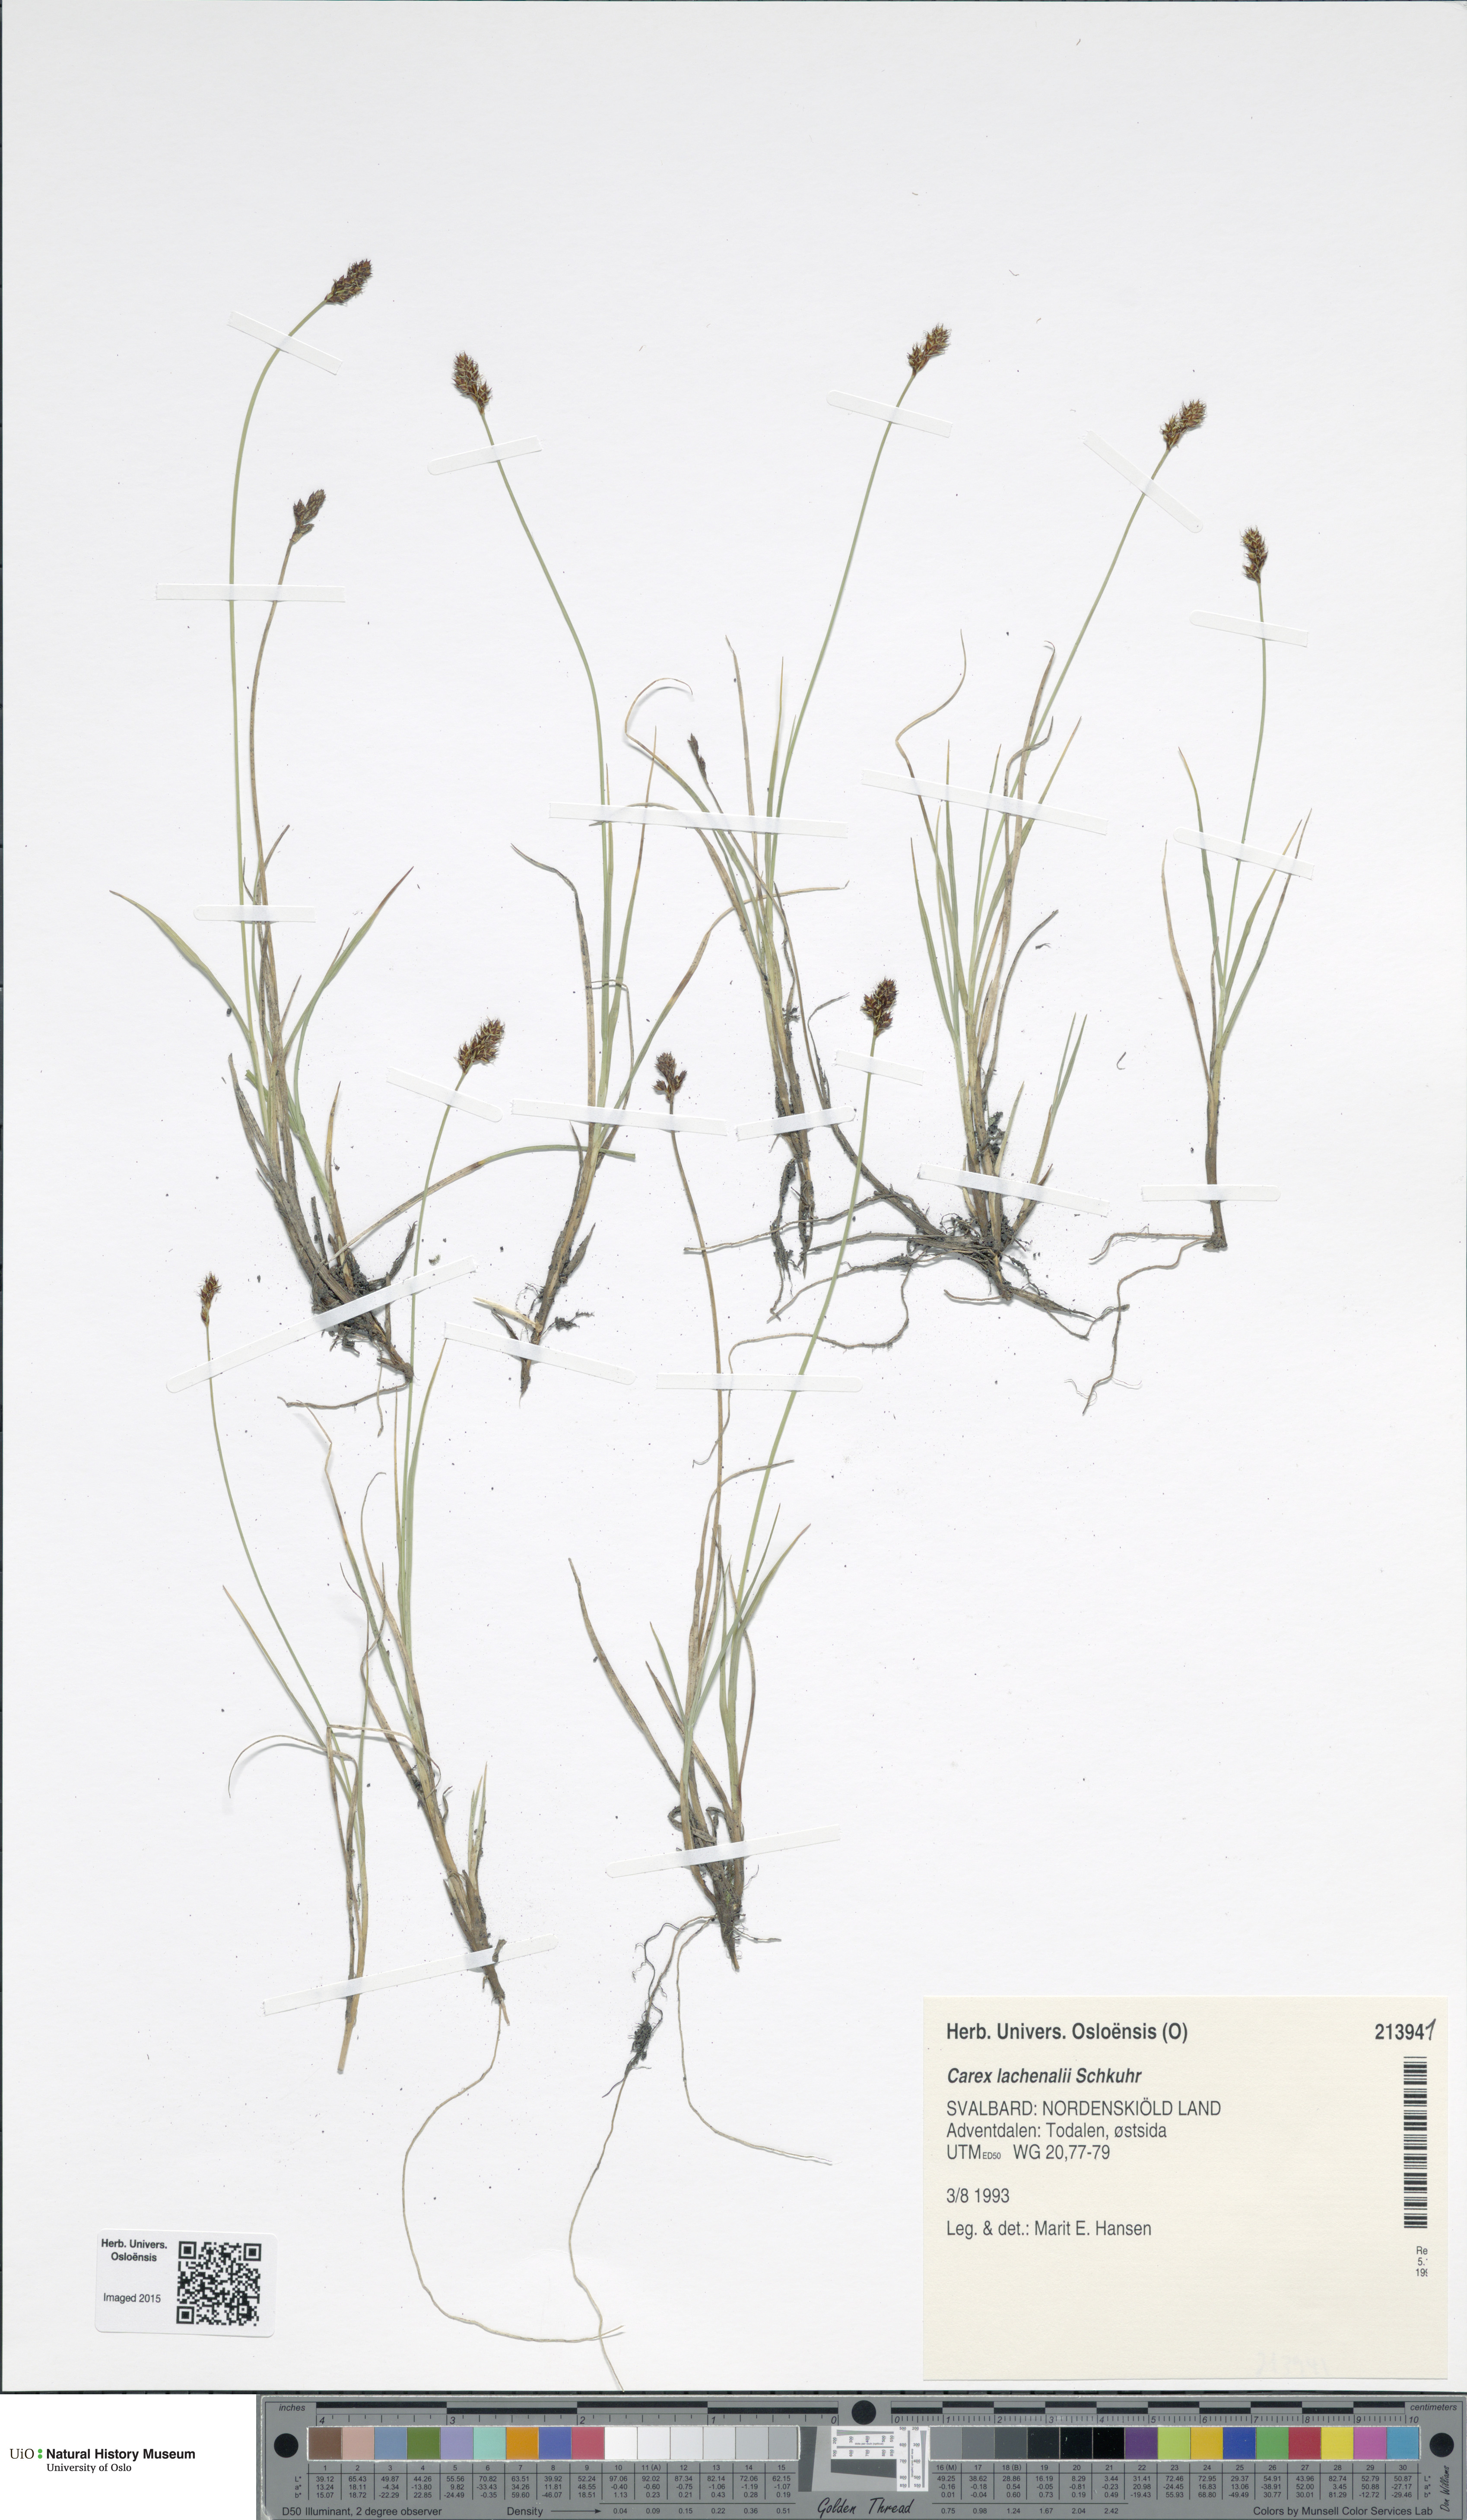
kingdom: Plantae
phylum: Tracheophyta
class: Liliopsida
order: Poales
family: Cyperaceae
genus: Carex
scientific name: Carex lachenalii
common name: Hare's-foot sedge
